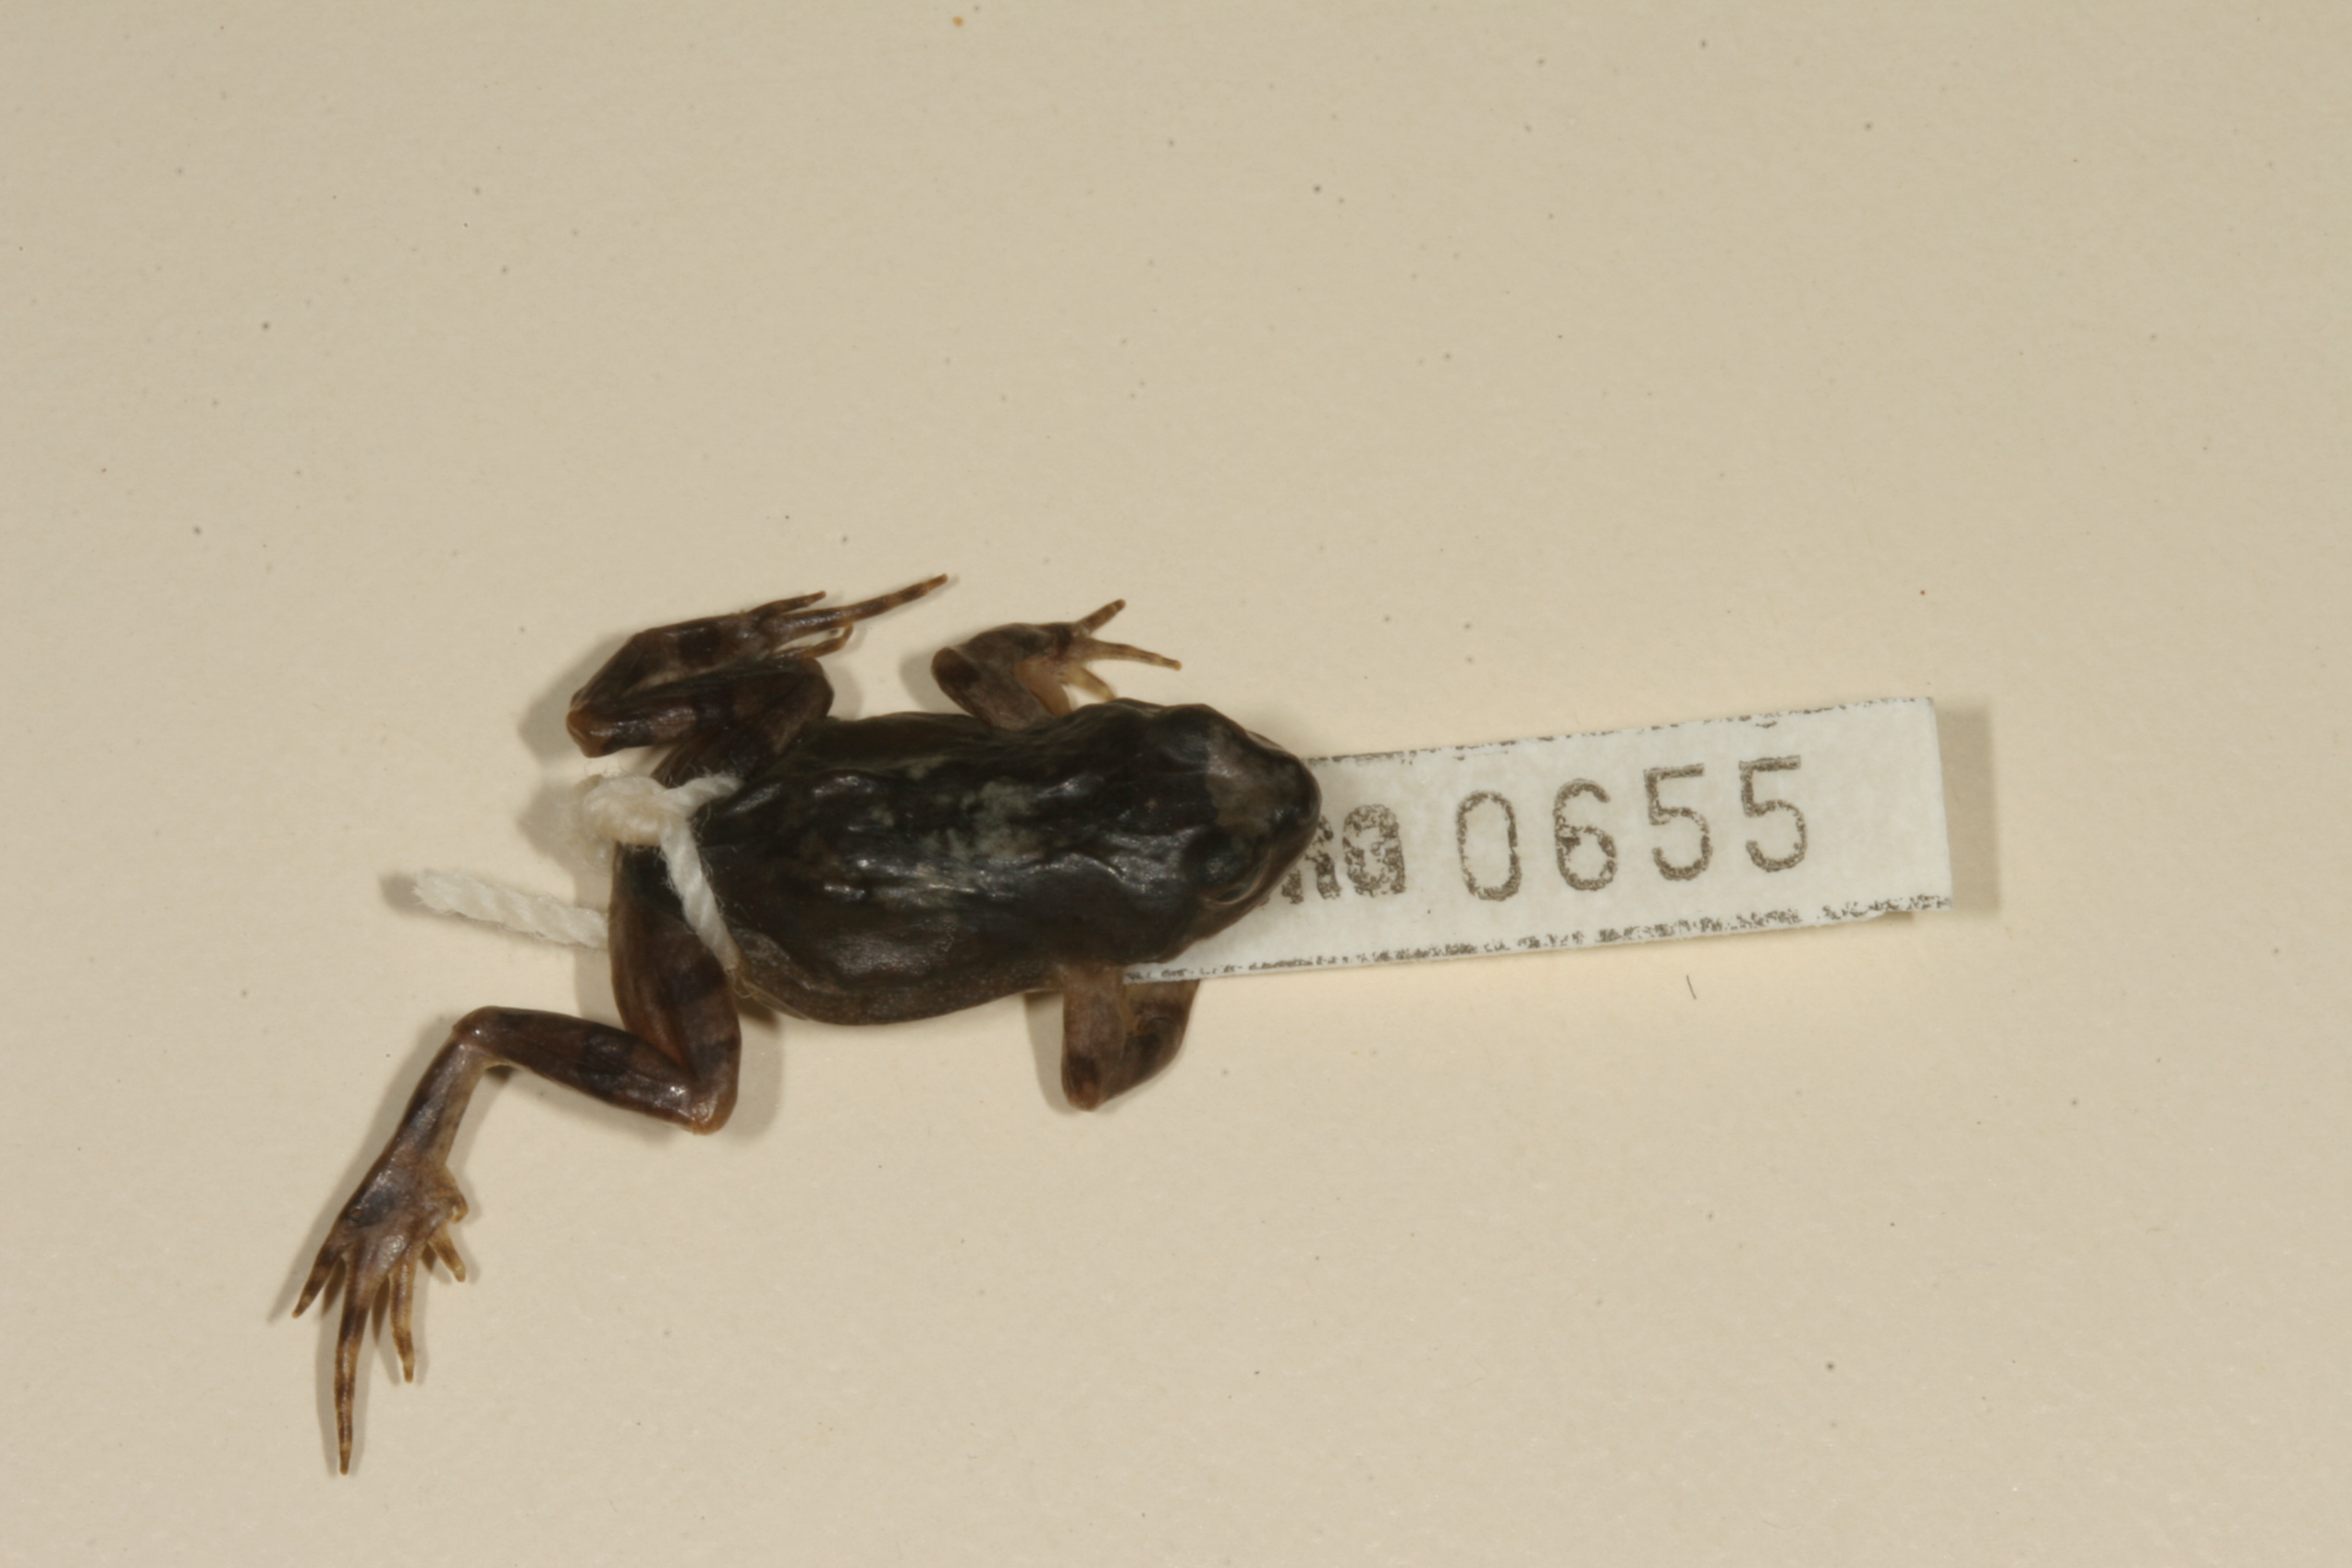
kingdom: Animalia
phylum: Chordata
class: Amphibia
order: Anura
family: Pyxicephalidae
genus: Cacosternum
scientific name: Cacosternum namaquense
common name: Namaqua caco
